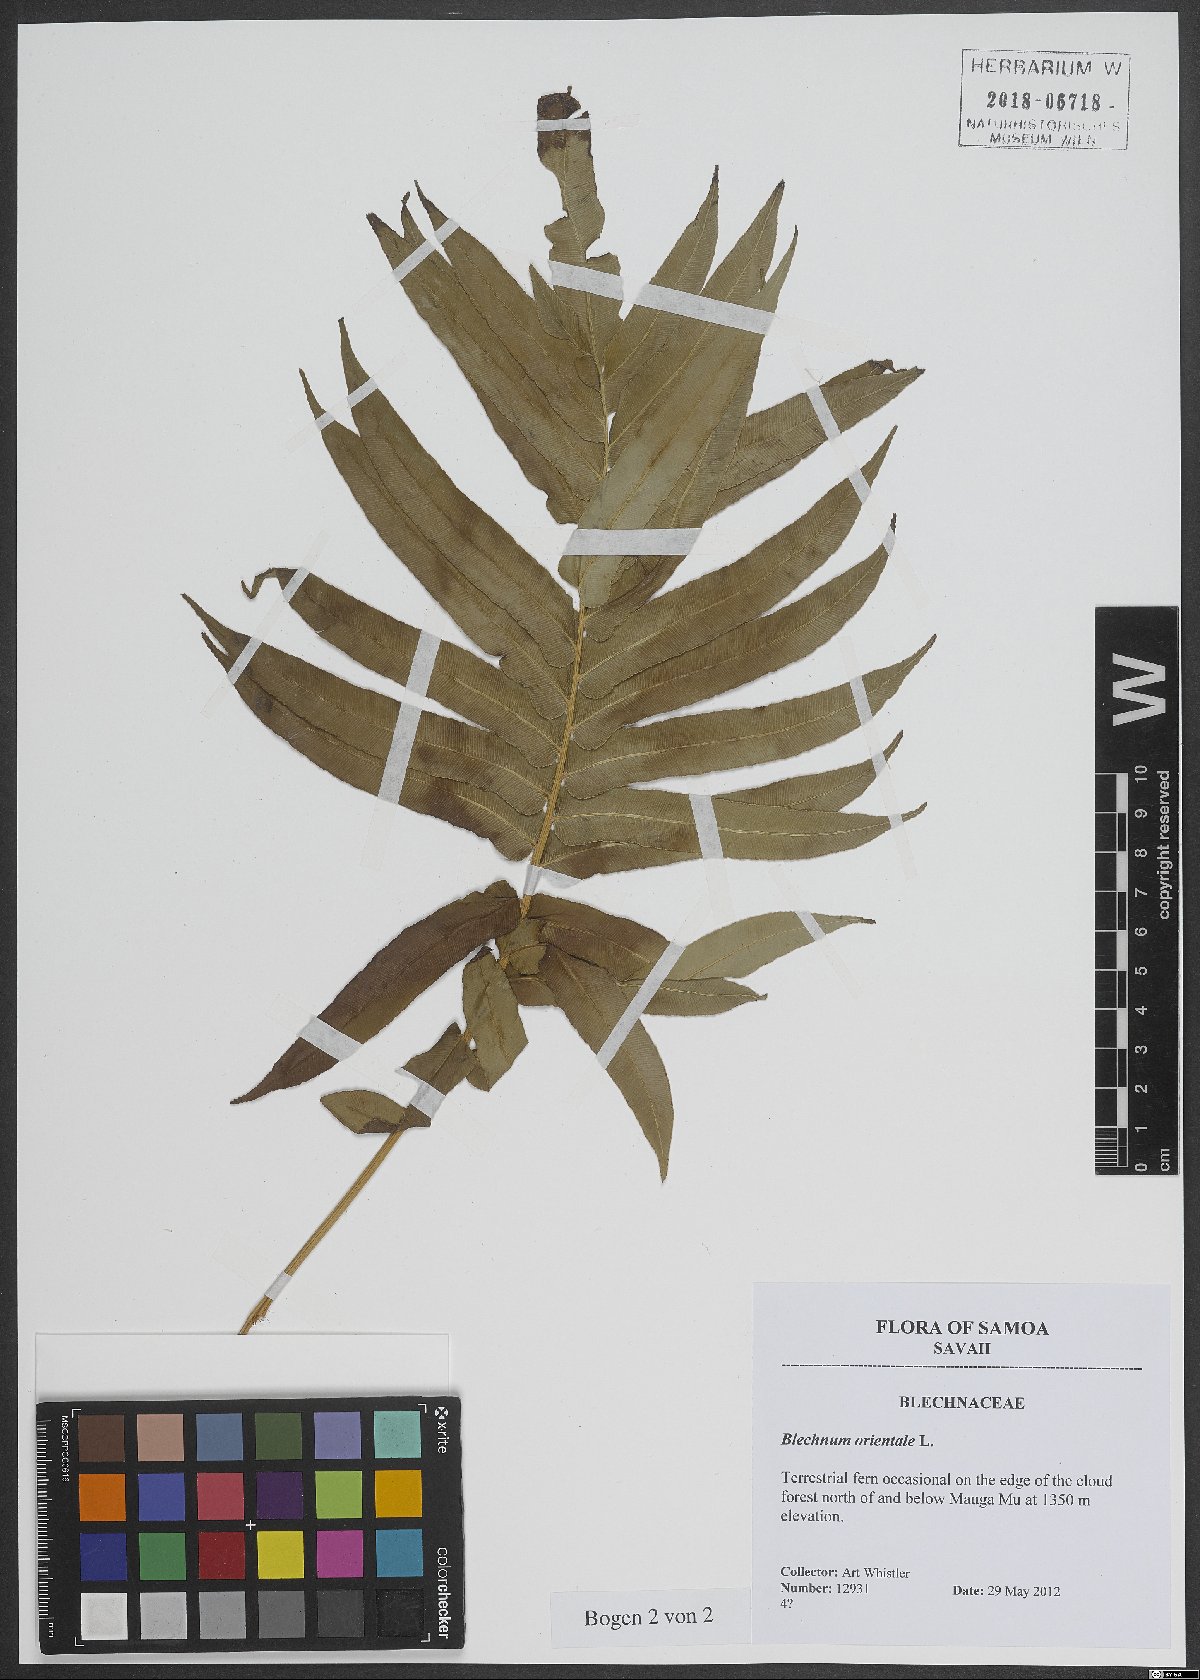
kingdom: Plantae
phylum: Tracheophyta
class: Polypodiopsida
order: Polypodiales
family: Blechnaceae
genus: Blechnopsis
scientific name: Blechnopsis orientalis
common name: Oriental blechnum
